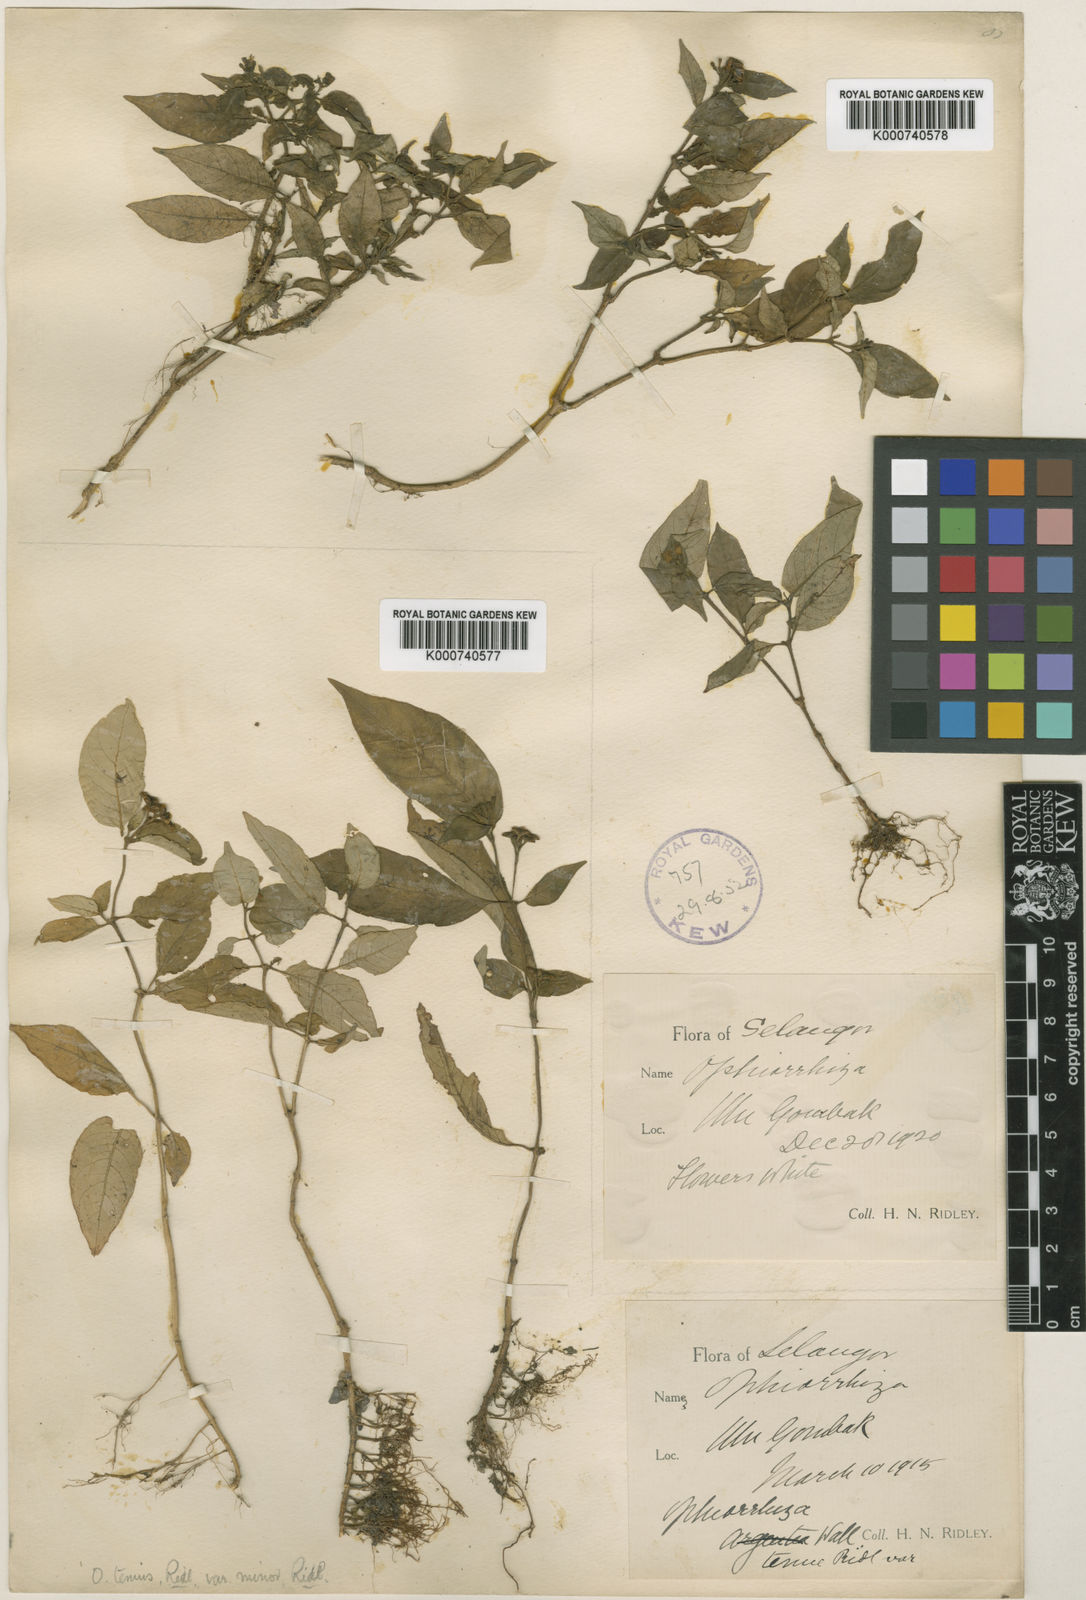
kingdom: Plantae
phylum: Tracheophyta
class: Magnoliopsida
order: Gentianales
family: Rubiaceae
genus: Ophiorrhiza
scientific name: Ophiorrhiza tenuis
